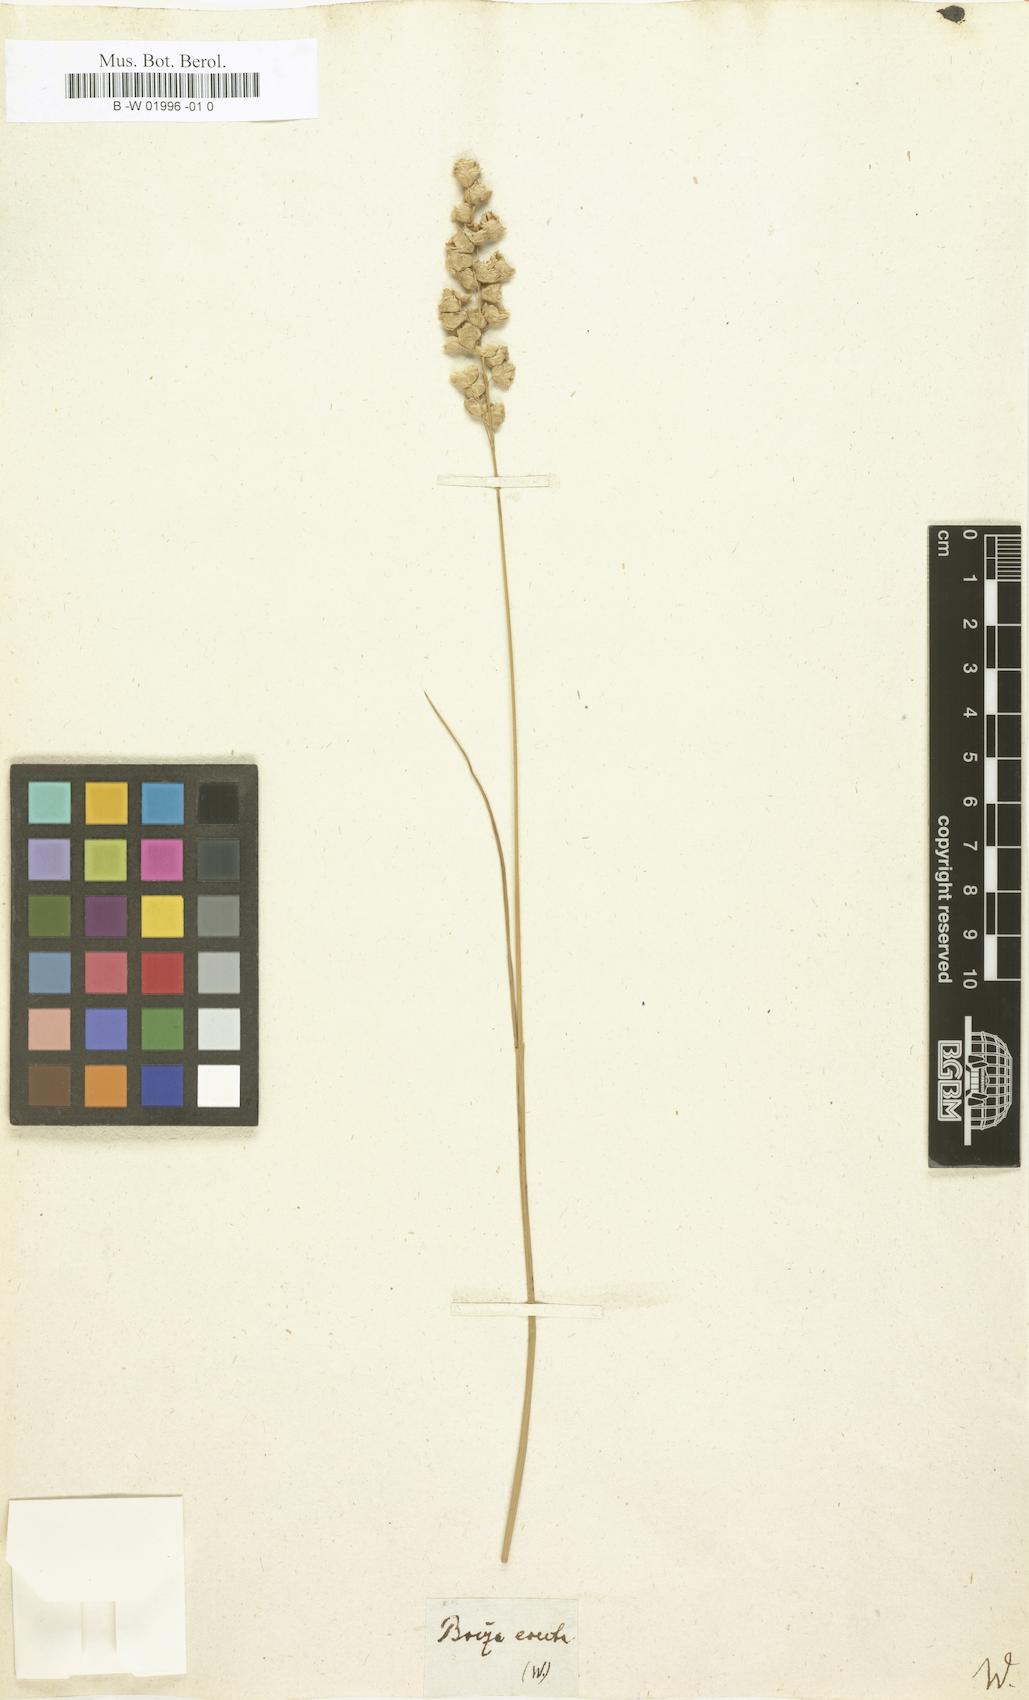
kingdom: Plantae
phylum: Tracheophyta
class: Liliopsida
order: Poales
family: Poaceae
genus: Chascolytrum
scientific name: Chascolytrum erectum
